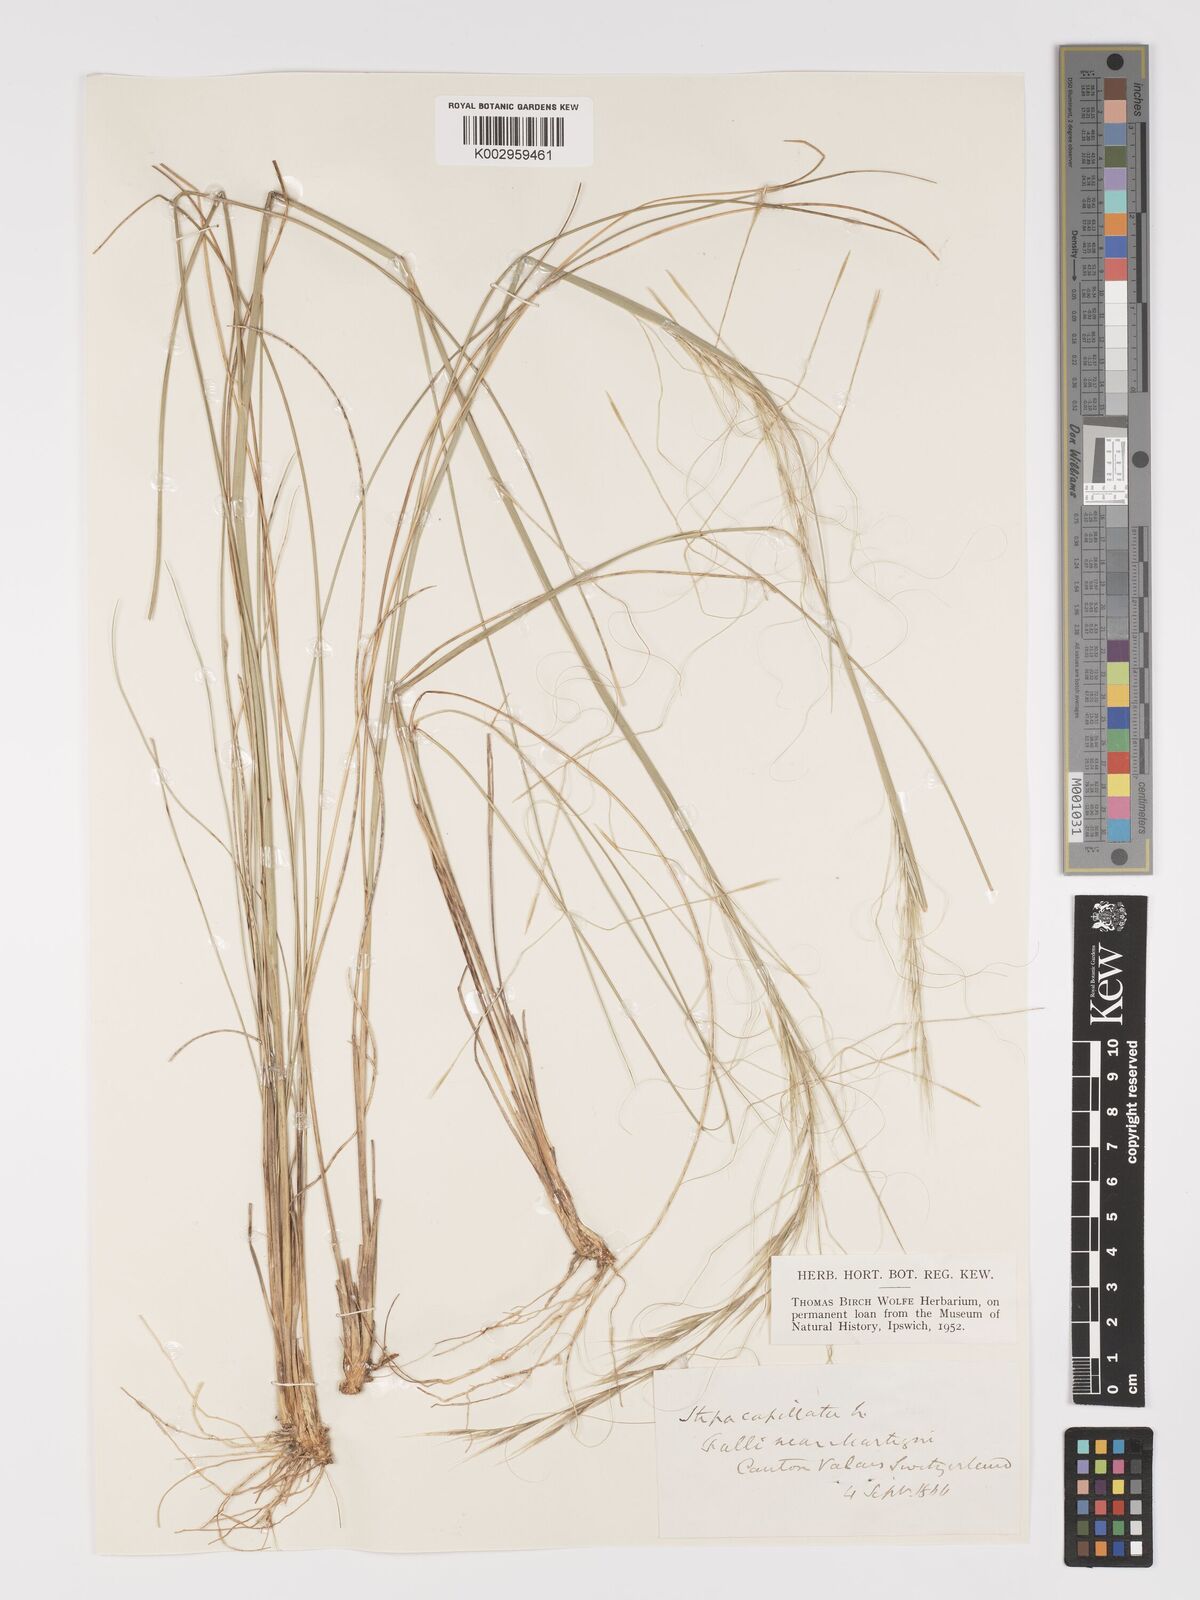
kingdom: Plantae
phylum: Tracheophyta
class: Liliopsida
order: Poales
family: Poaceae
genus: Stipa
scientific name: Stipa capillata
